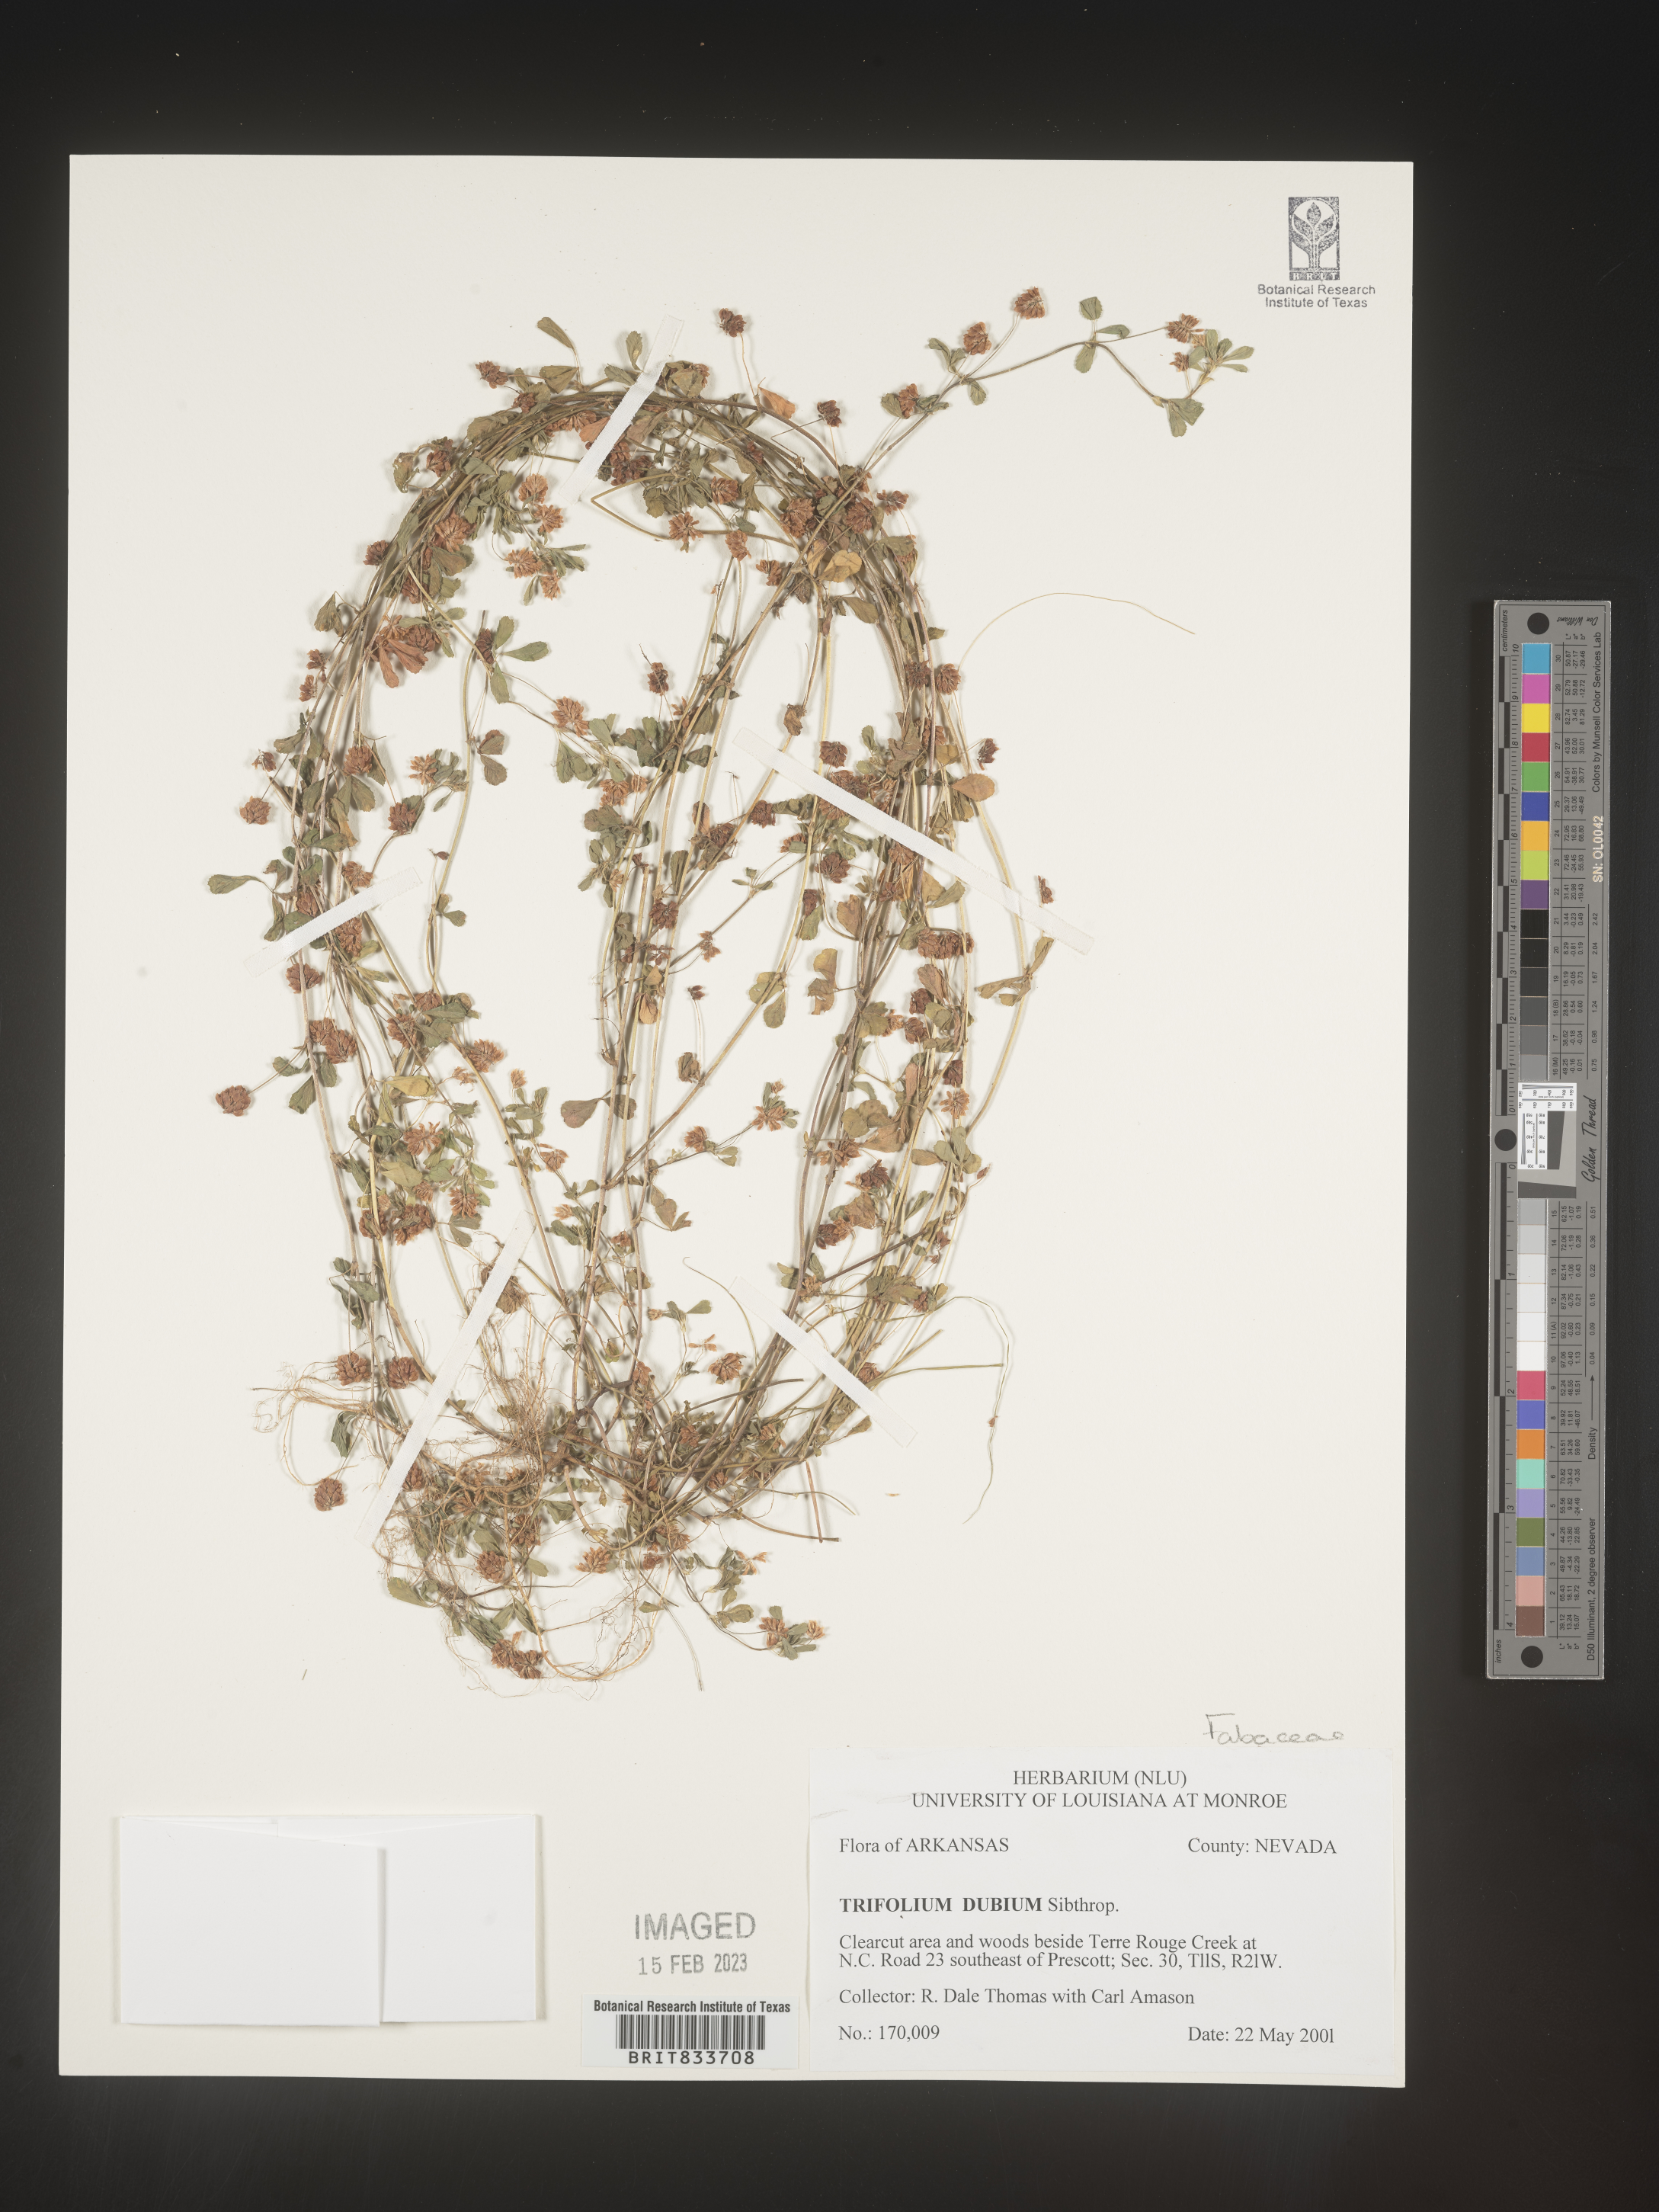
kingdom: Plantae
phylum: Tracheophyta
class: Magnoliopsida
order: Fabales
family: Fabaceae
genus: Trifolium
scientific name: Trifolium dubium
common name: Suckling clover
